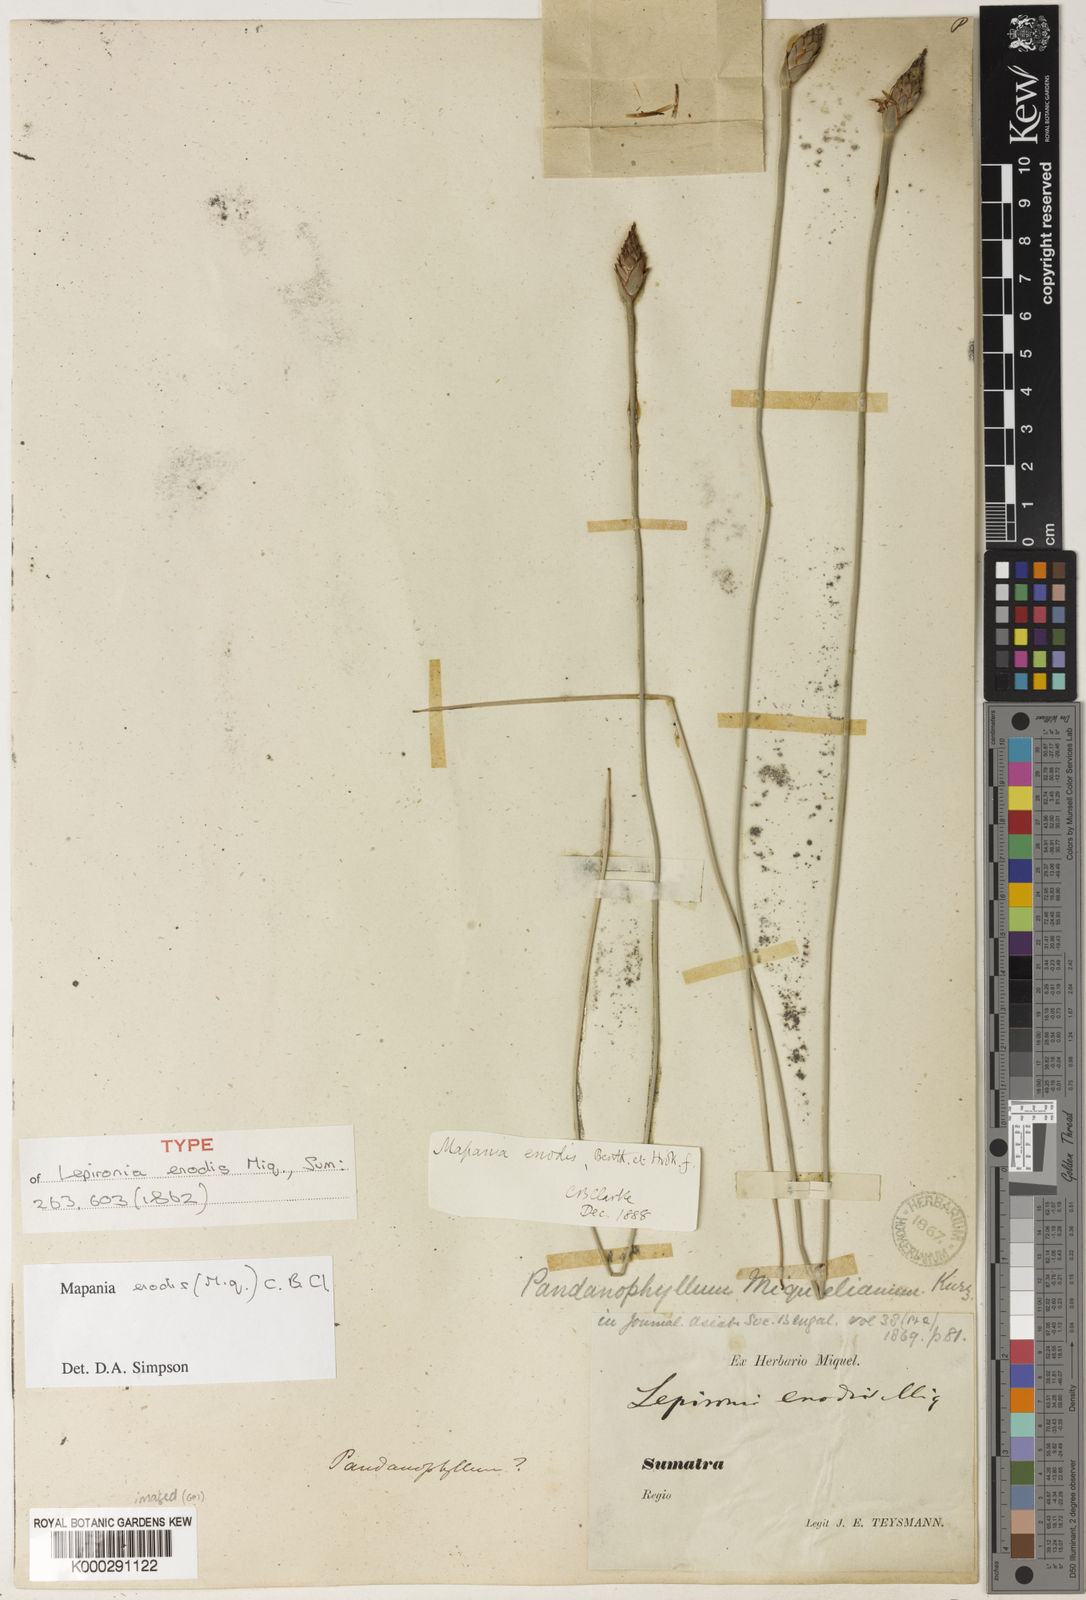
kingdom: Plantae
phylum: Tracheophyta
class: Liliopsida
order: Poales
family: Cyperaceae
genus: Mapania
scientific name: Mapania enodis
